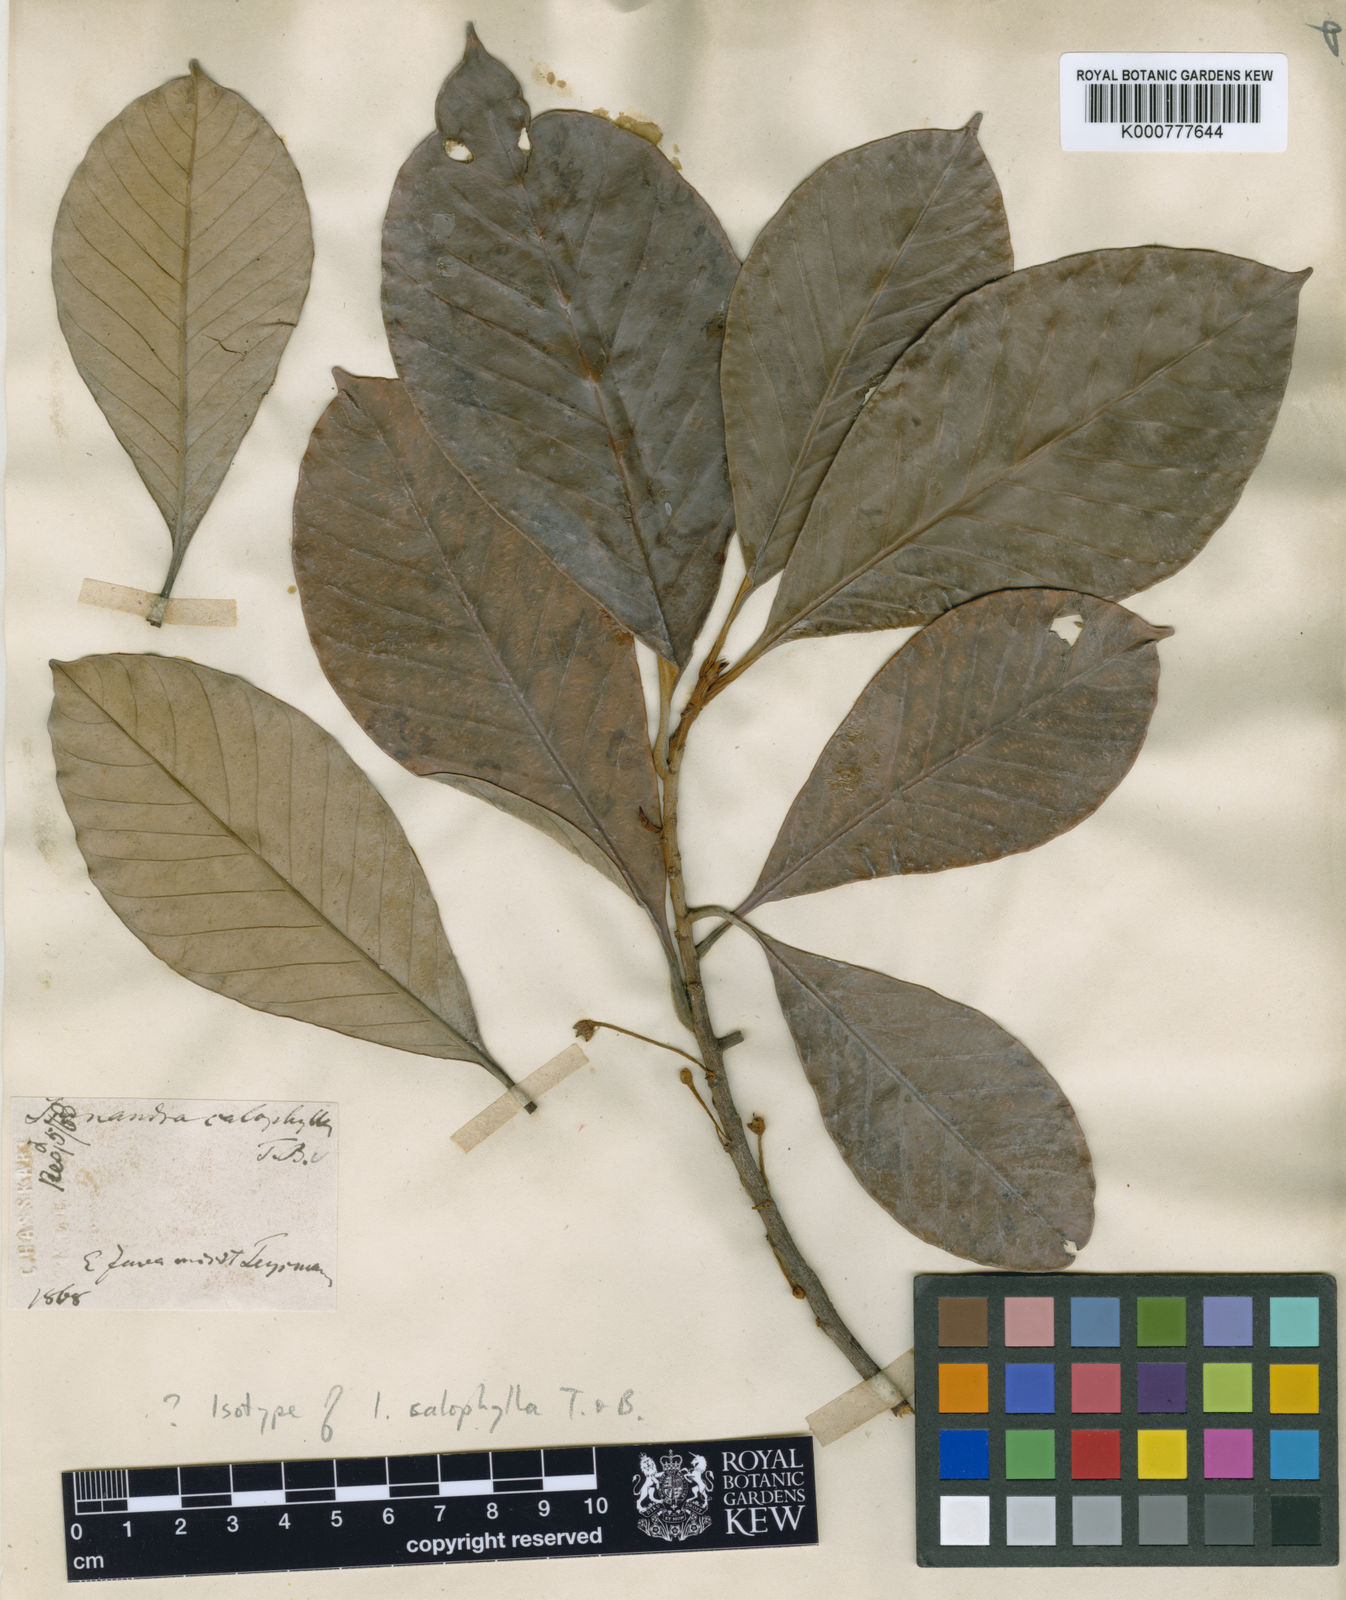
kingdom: Plantae
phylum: Tracheophyta
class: Magnoliopsida
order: Ericales
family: Sapotaceae
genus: Palaquium
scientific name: Palaquium calophyllum
